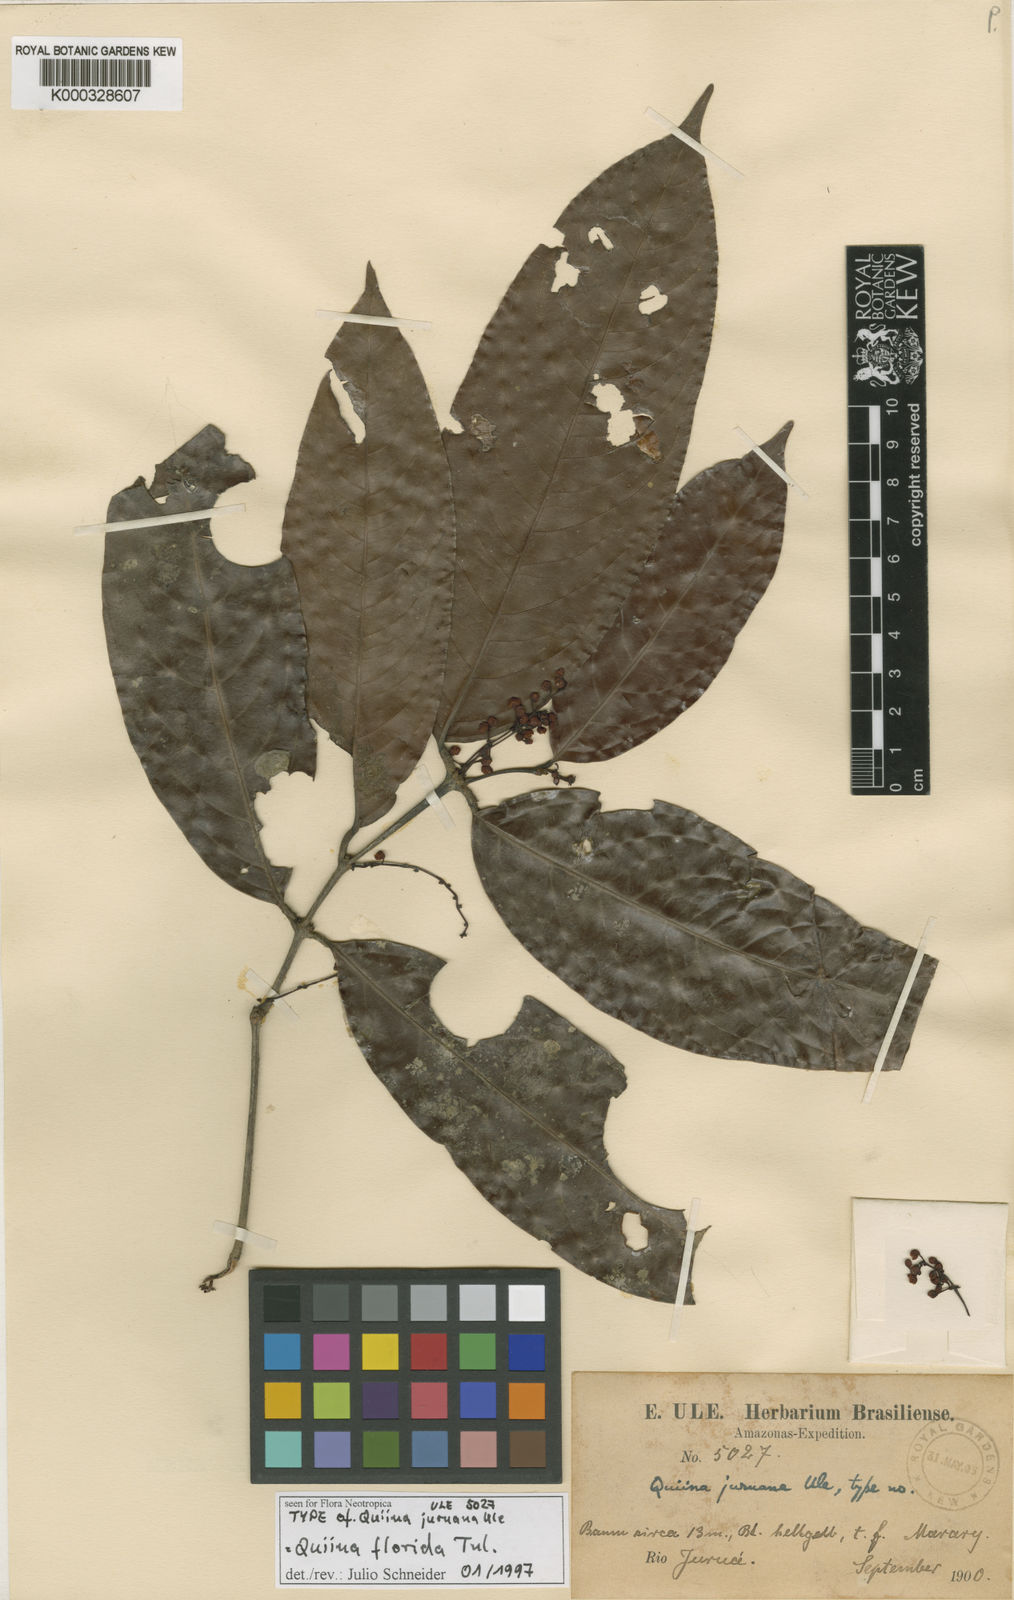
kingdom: Plantae
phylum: Tracheophyta
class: Magnoliopsida
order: Malpighiales
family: Quiinaceae
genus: Quiina
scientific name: Quiina florida
